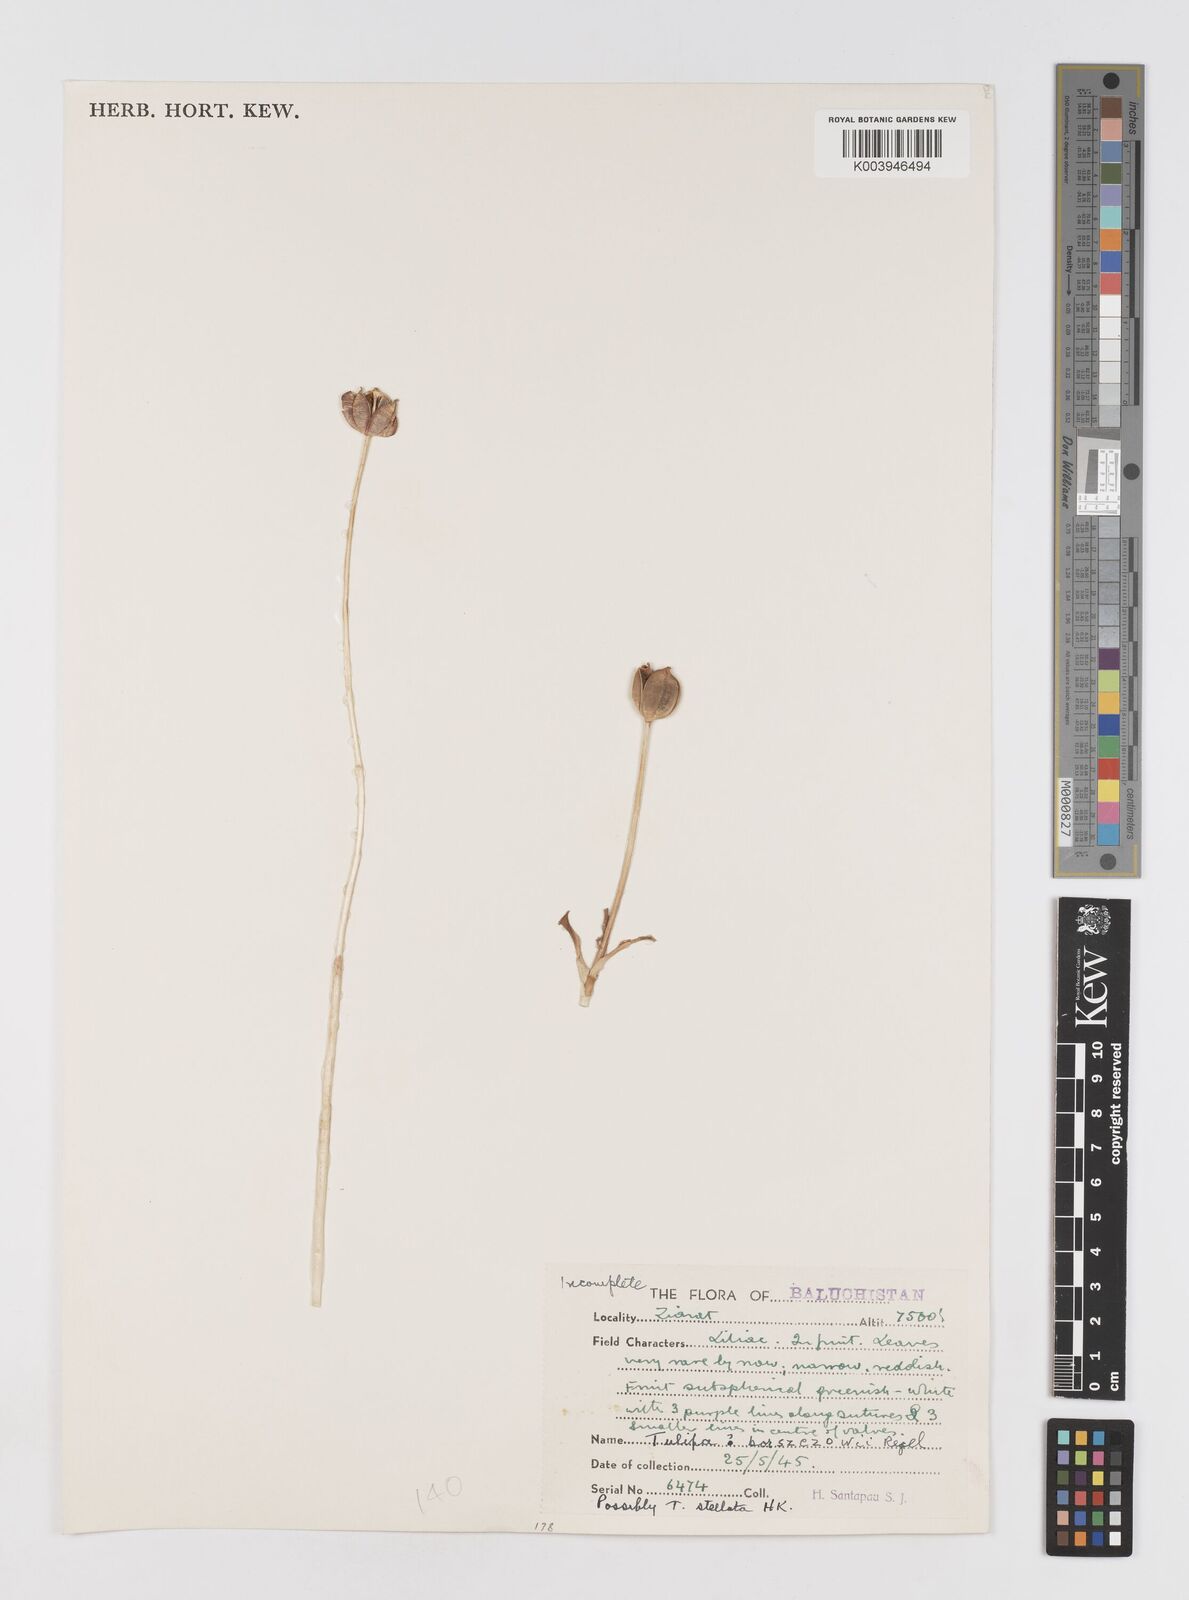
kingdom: Plantae
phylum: Tracheophyta
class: Liliopsida
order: Liliales
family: Liliaceae
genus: Tulipa
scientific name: Tulipa
